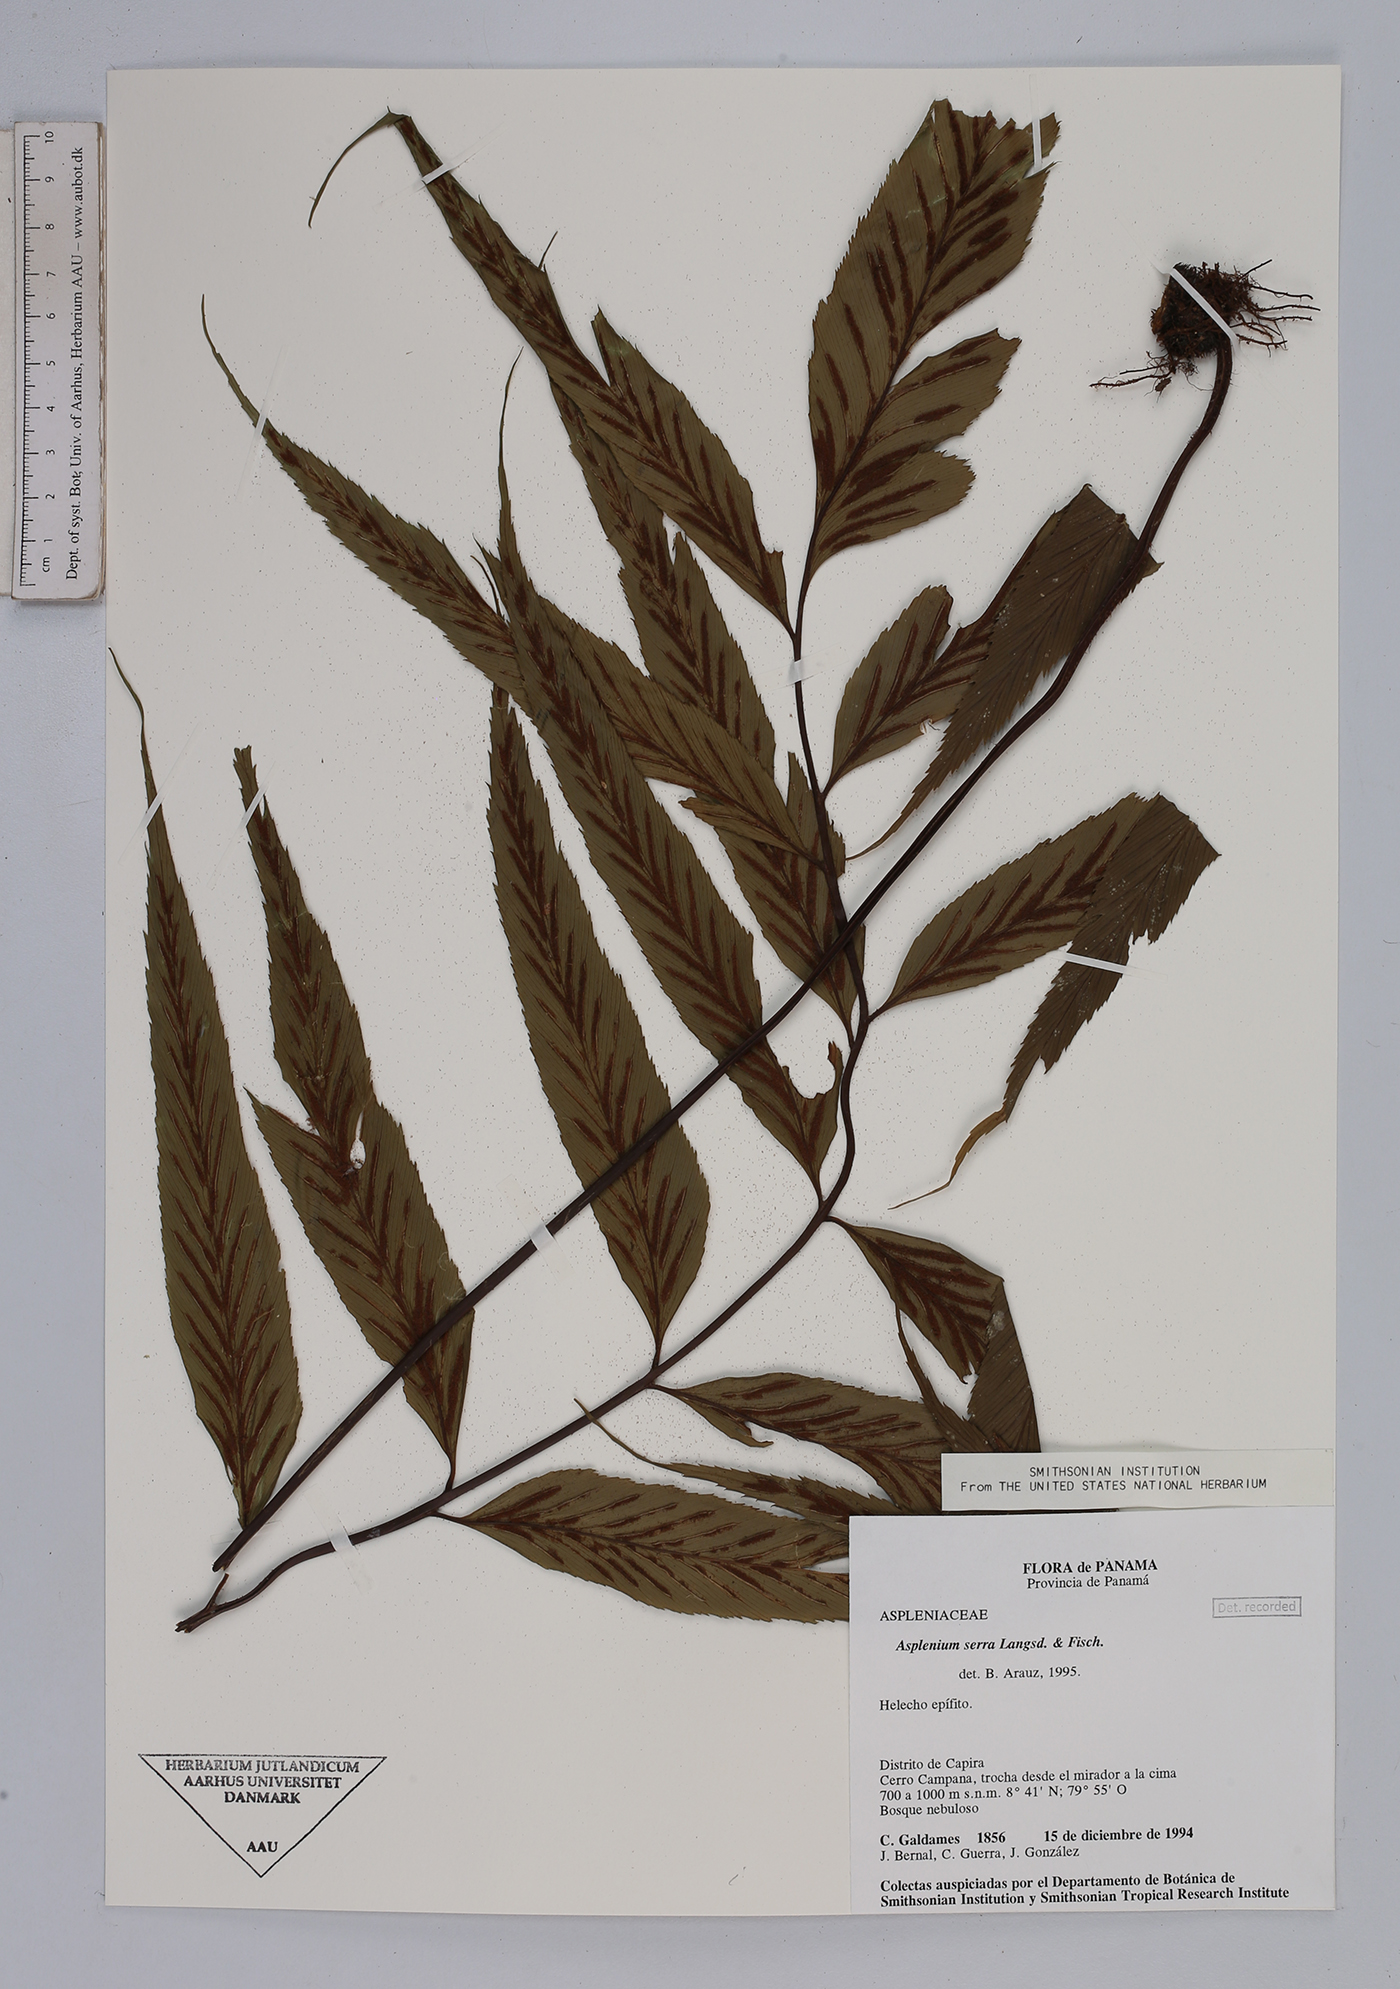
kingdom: Plantae
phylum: Tracheophyta
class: Polypodiopsida
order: Polypodiales
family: Aspleniaceae
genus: Asplenium
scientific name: Asplenium serra
